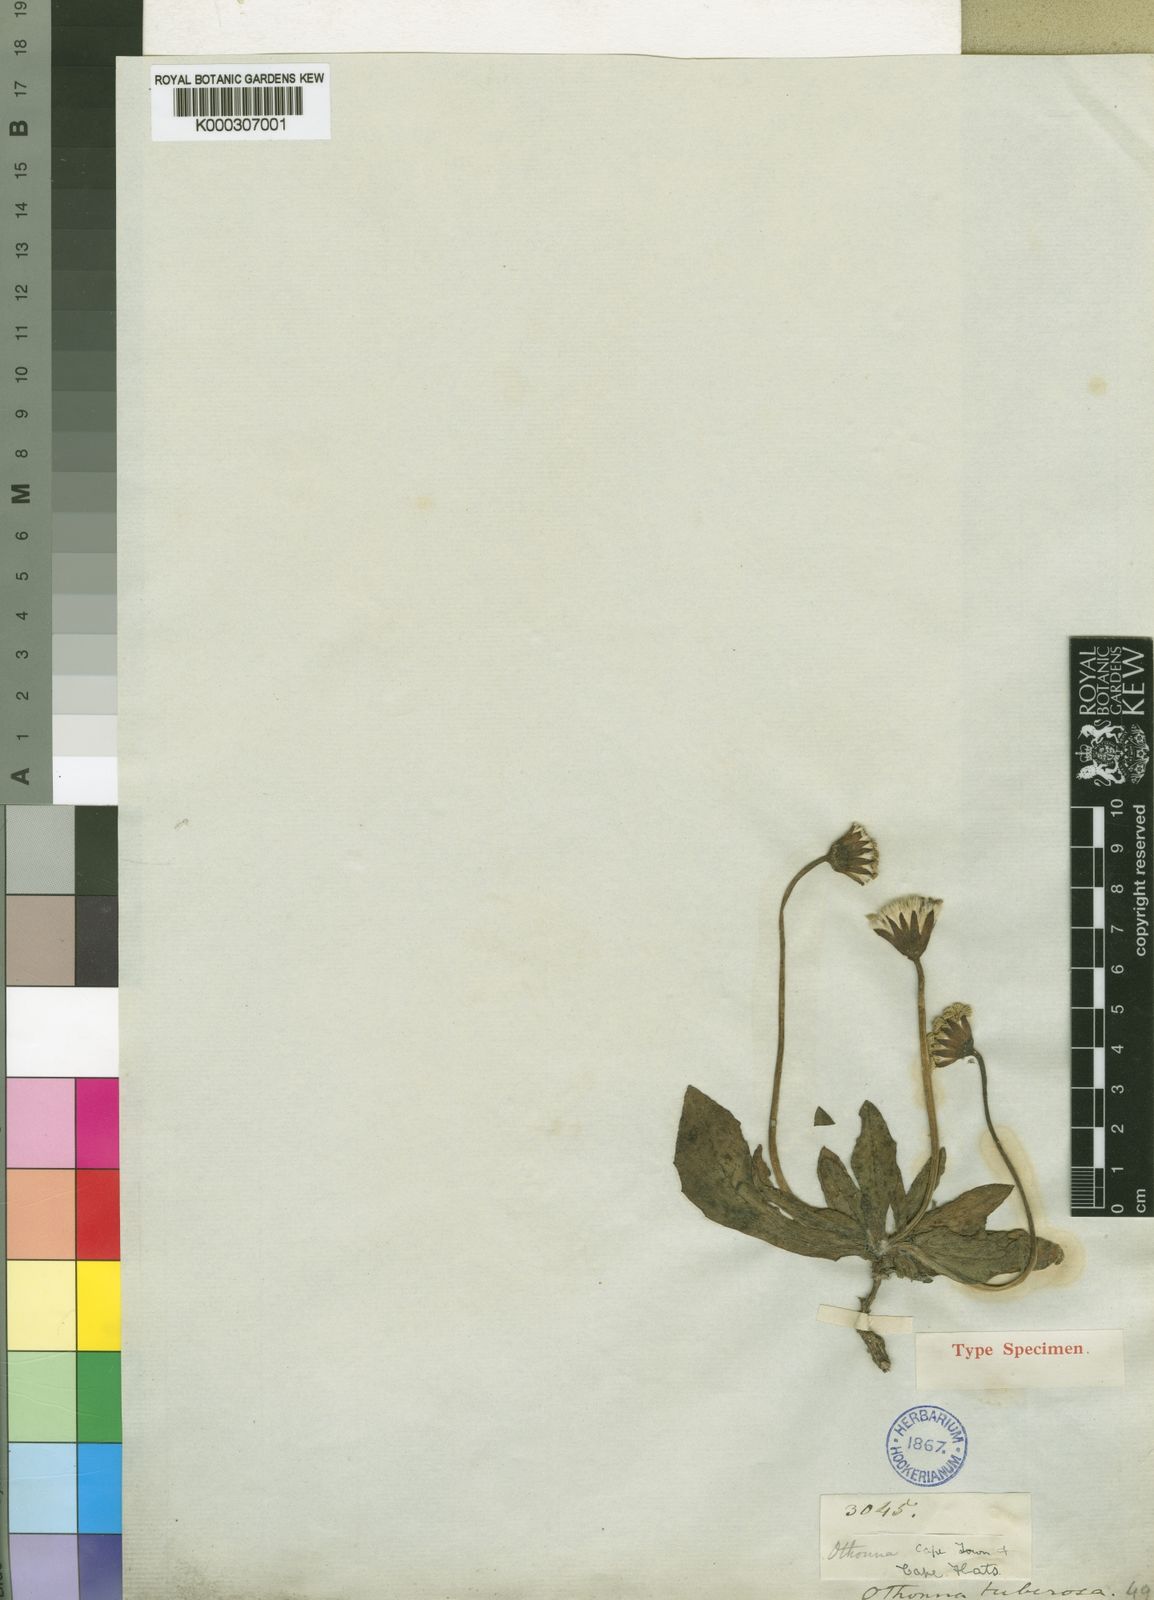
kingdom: Plantae
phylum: Tracheophyta
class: Magnoliopsida
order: Asterales
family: Asteraceae
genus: Othonna
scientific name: Othonna heterophylla
